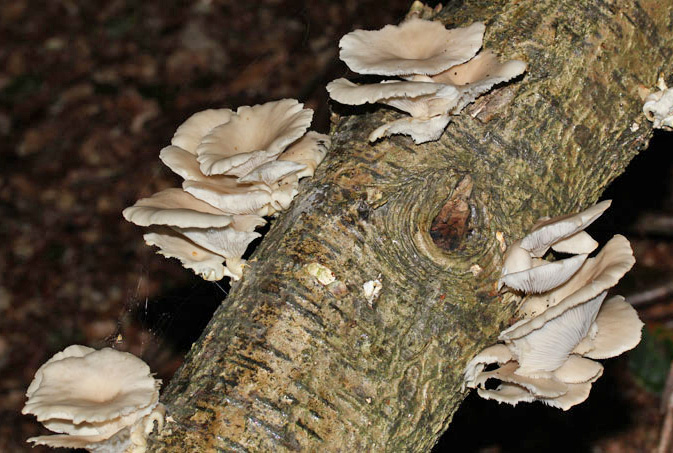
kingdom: Fungi
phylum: Basidiomycota
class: Agaricomycetes
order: Agaricales
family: Pleurotaceae
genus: Pleurotus
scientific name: Pleurotus pulmonarius
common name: sommer-østershat
